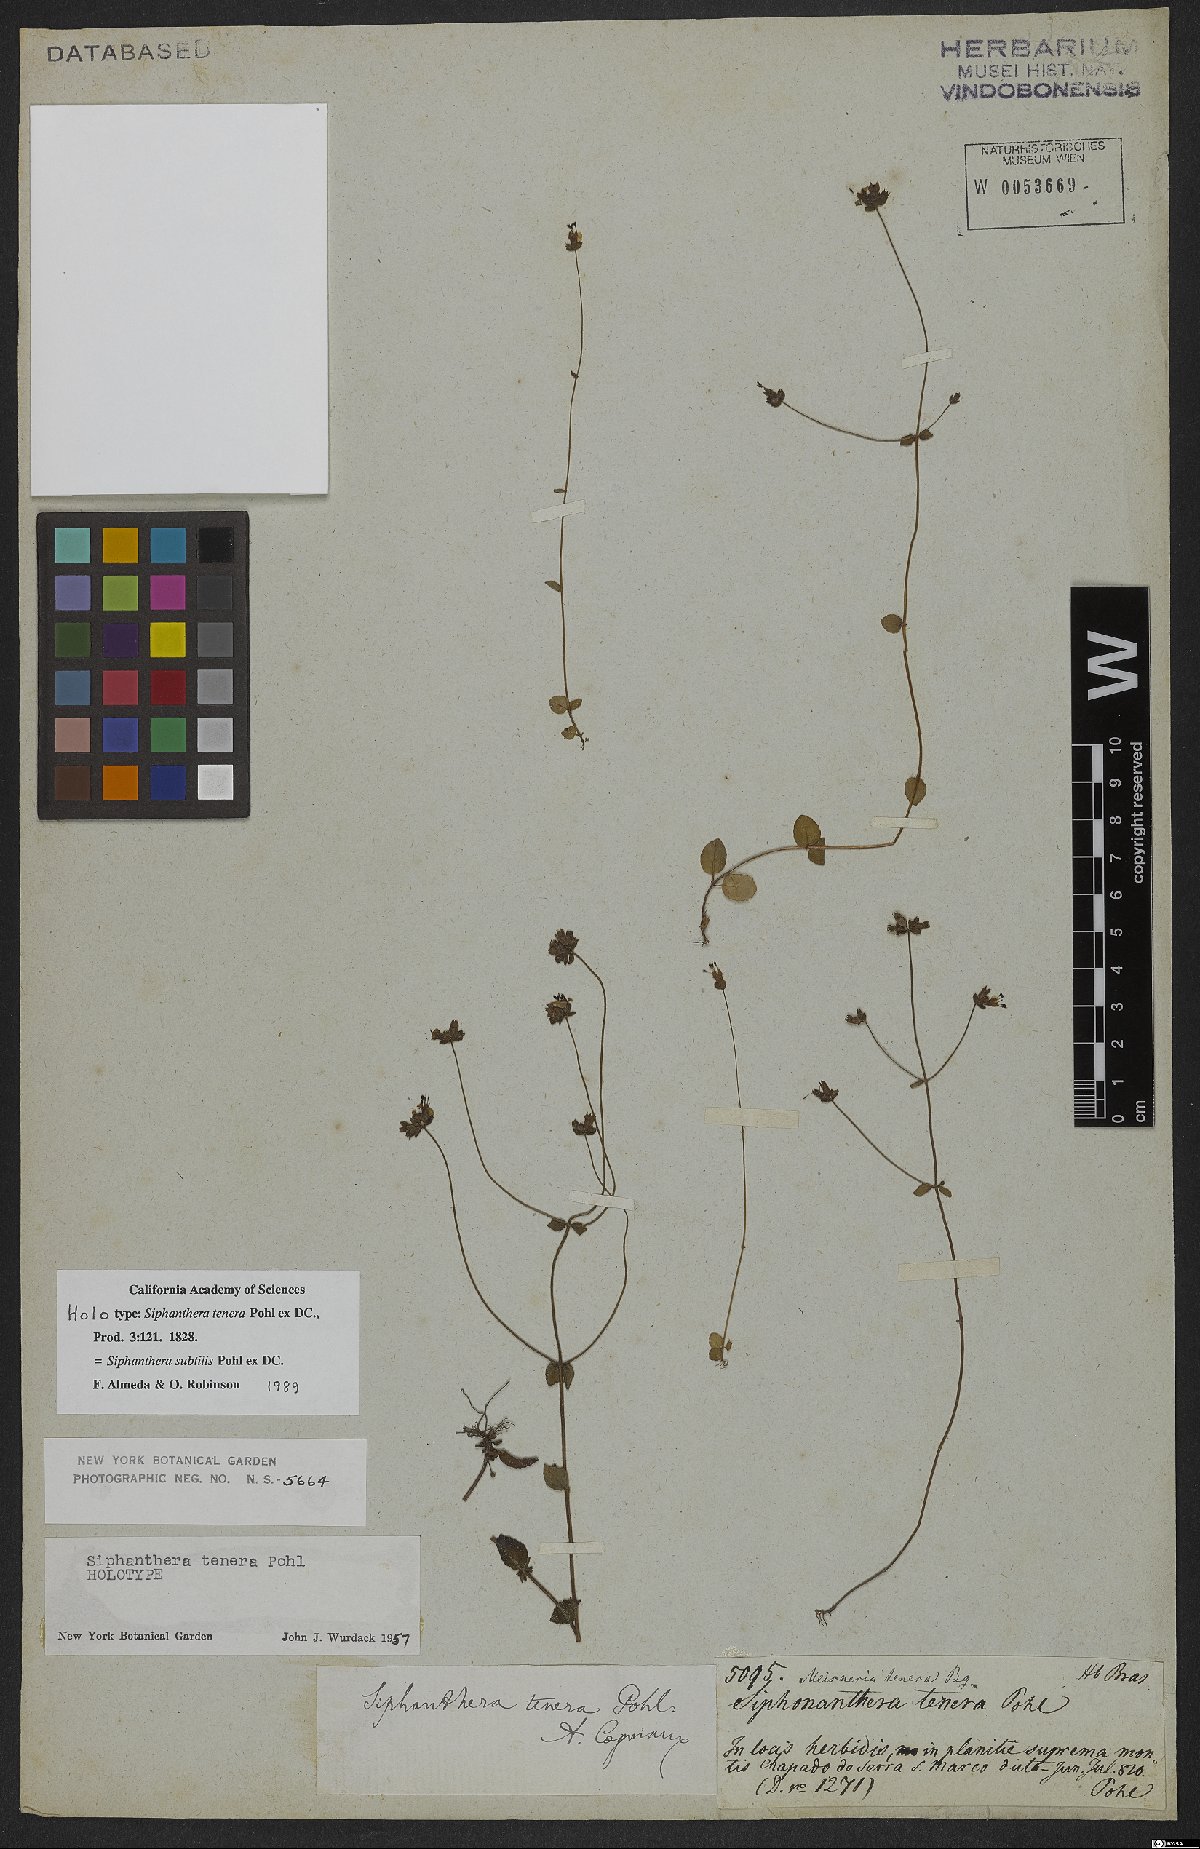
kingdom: Plantae
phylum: Tracheophyta
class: Magnoliopsida
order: Myrtales
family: Melastomataceae
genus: Siphanthera
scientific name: Siphanthera subtilis
